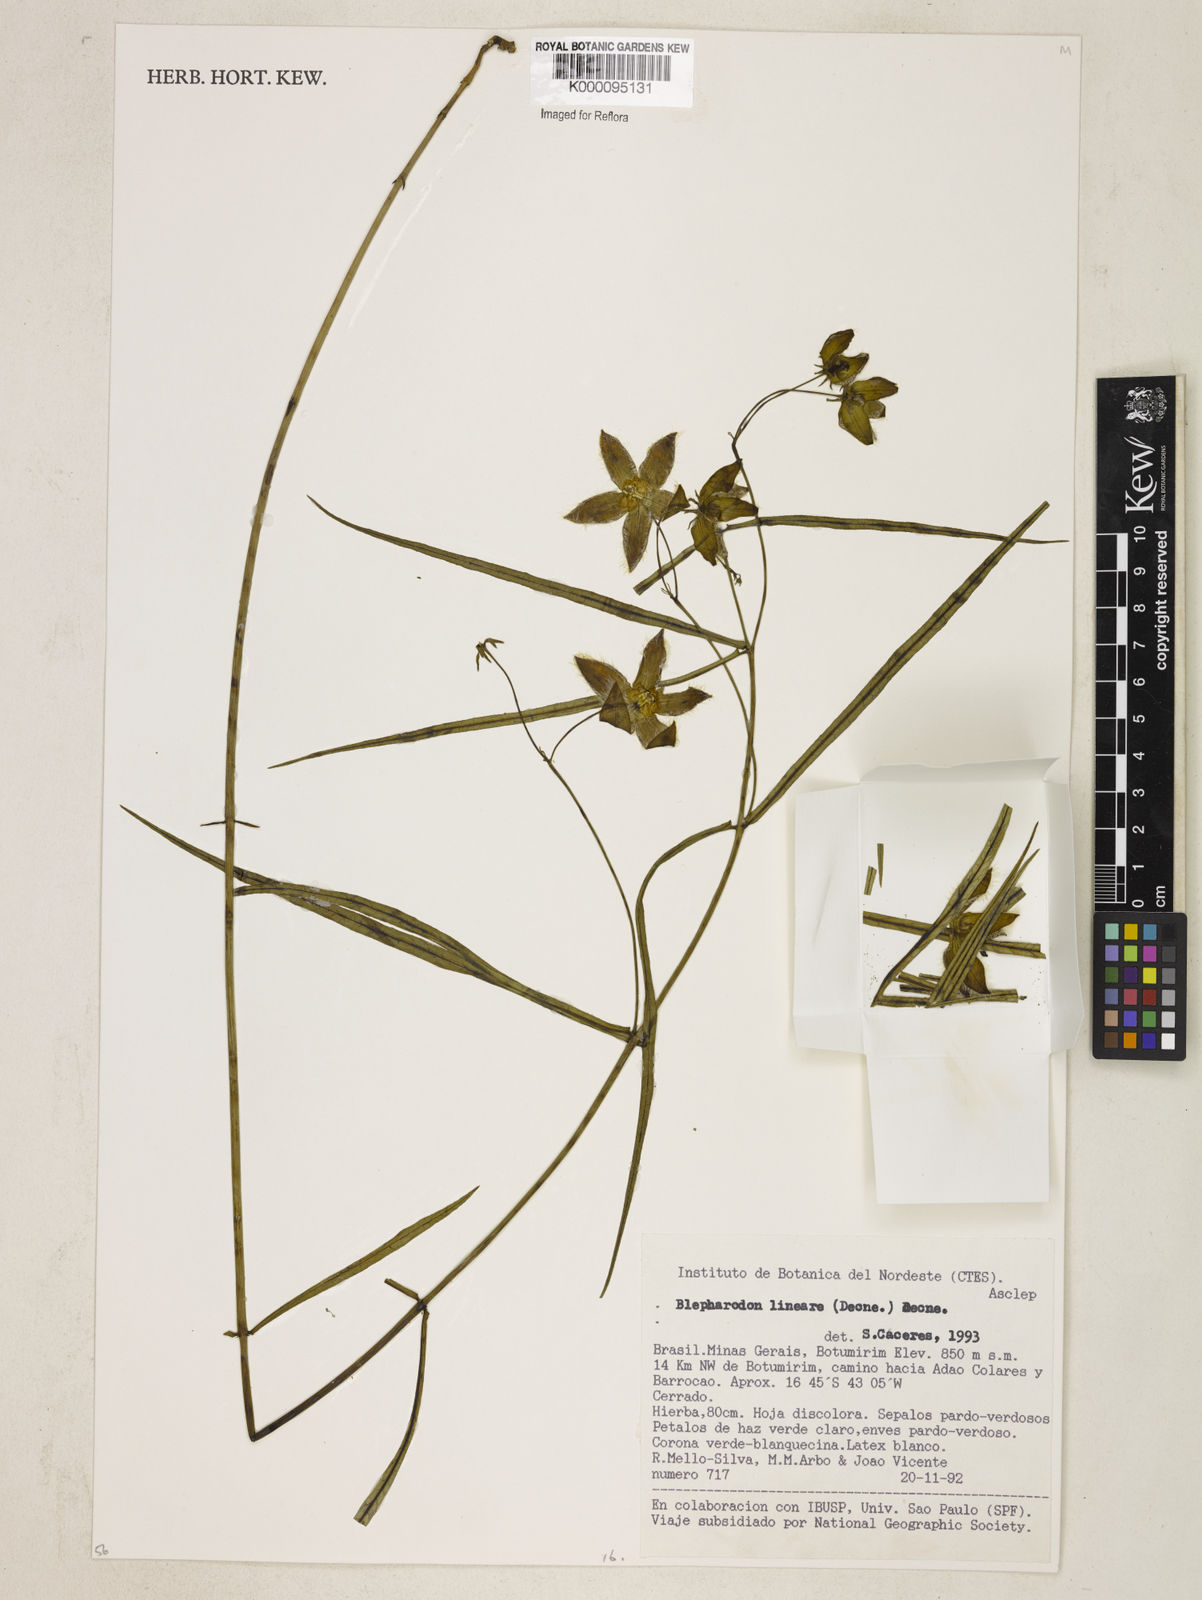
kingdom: Plantae
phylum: Tracheophyta
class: Magnoliopsida
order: Gentianales
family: Apocynaceae
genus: Blepharodon
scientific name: Blepharodon lineare
